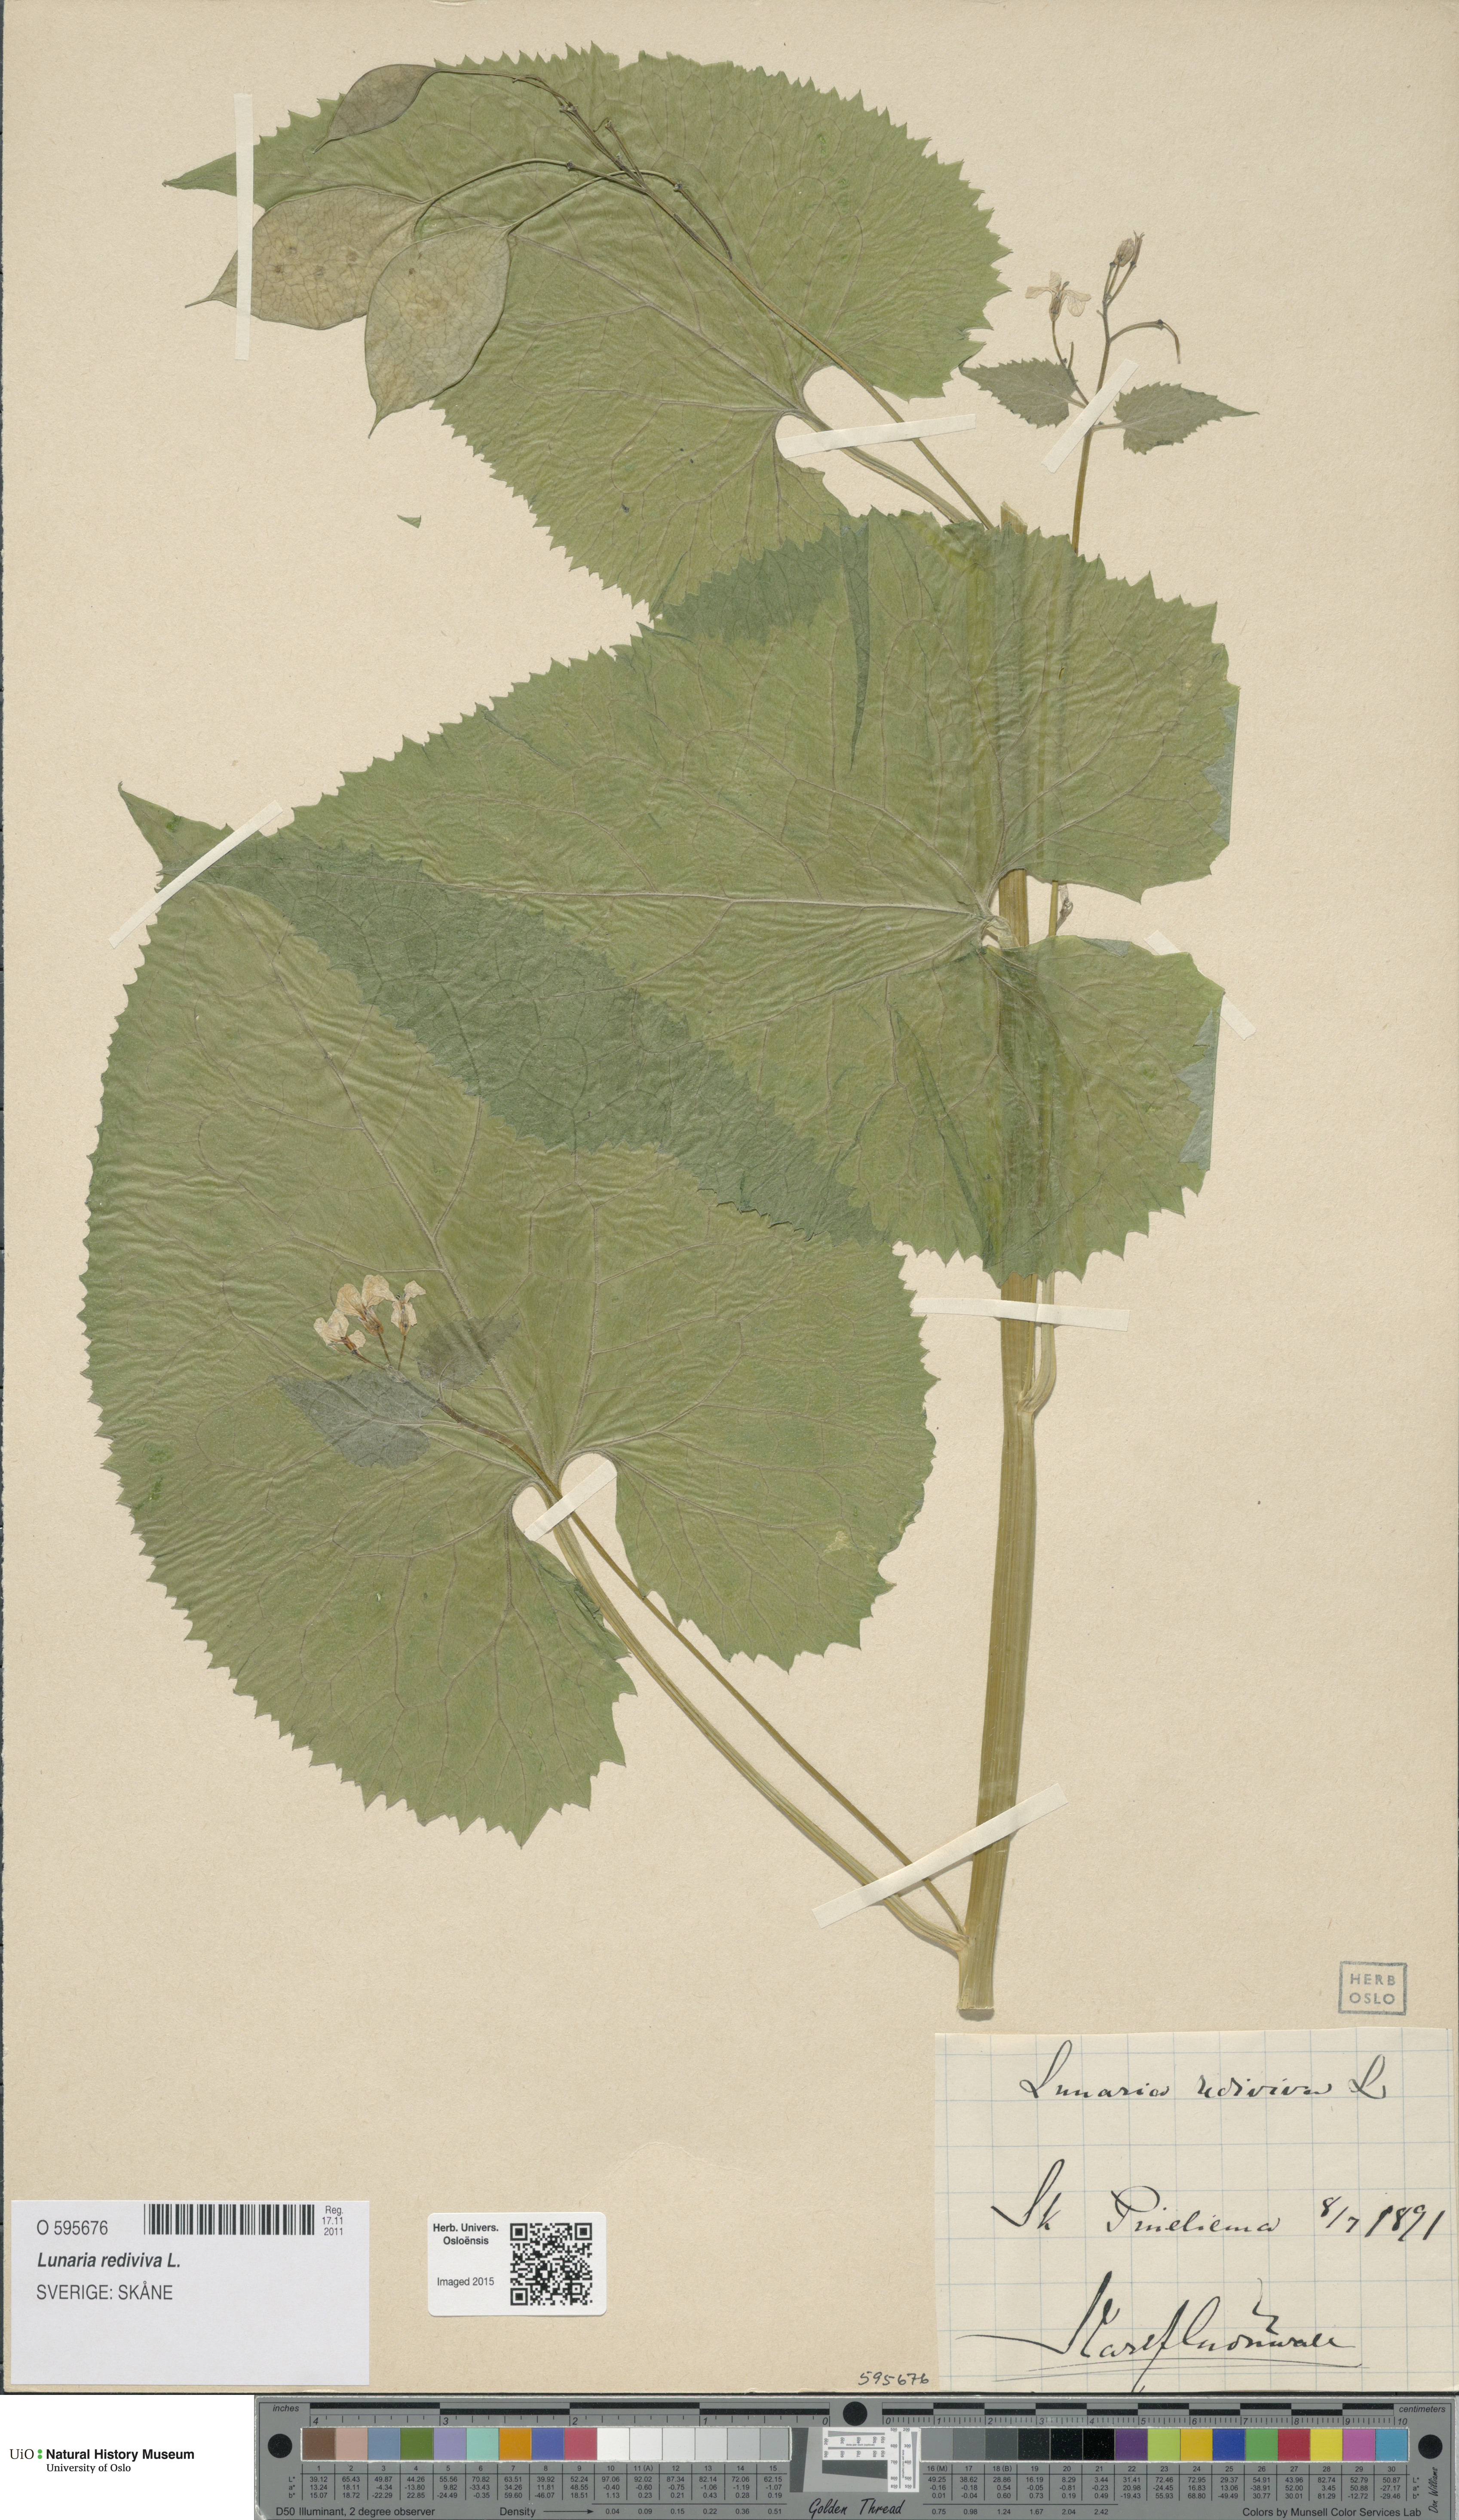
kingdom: Plantae
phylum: Tracheophyta
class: Magnoliopsida
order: Brassicales
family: Brassicaceae
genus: Lunaria
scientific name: Lunaria rediviva
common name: Perennial honesty
